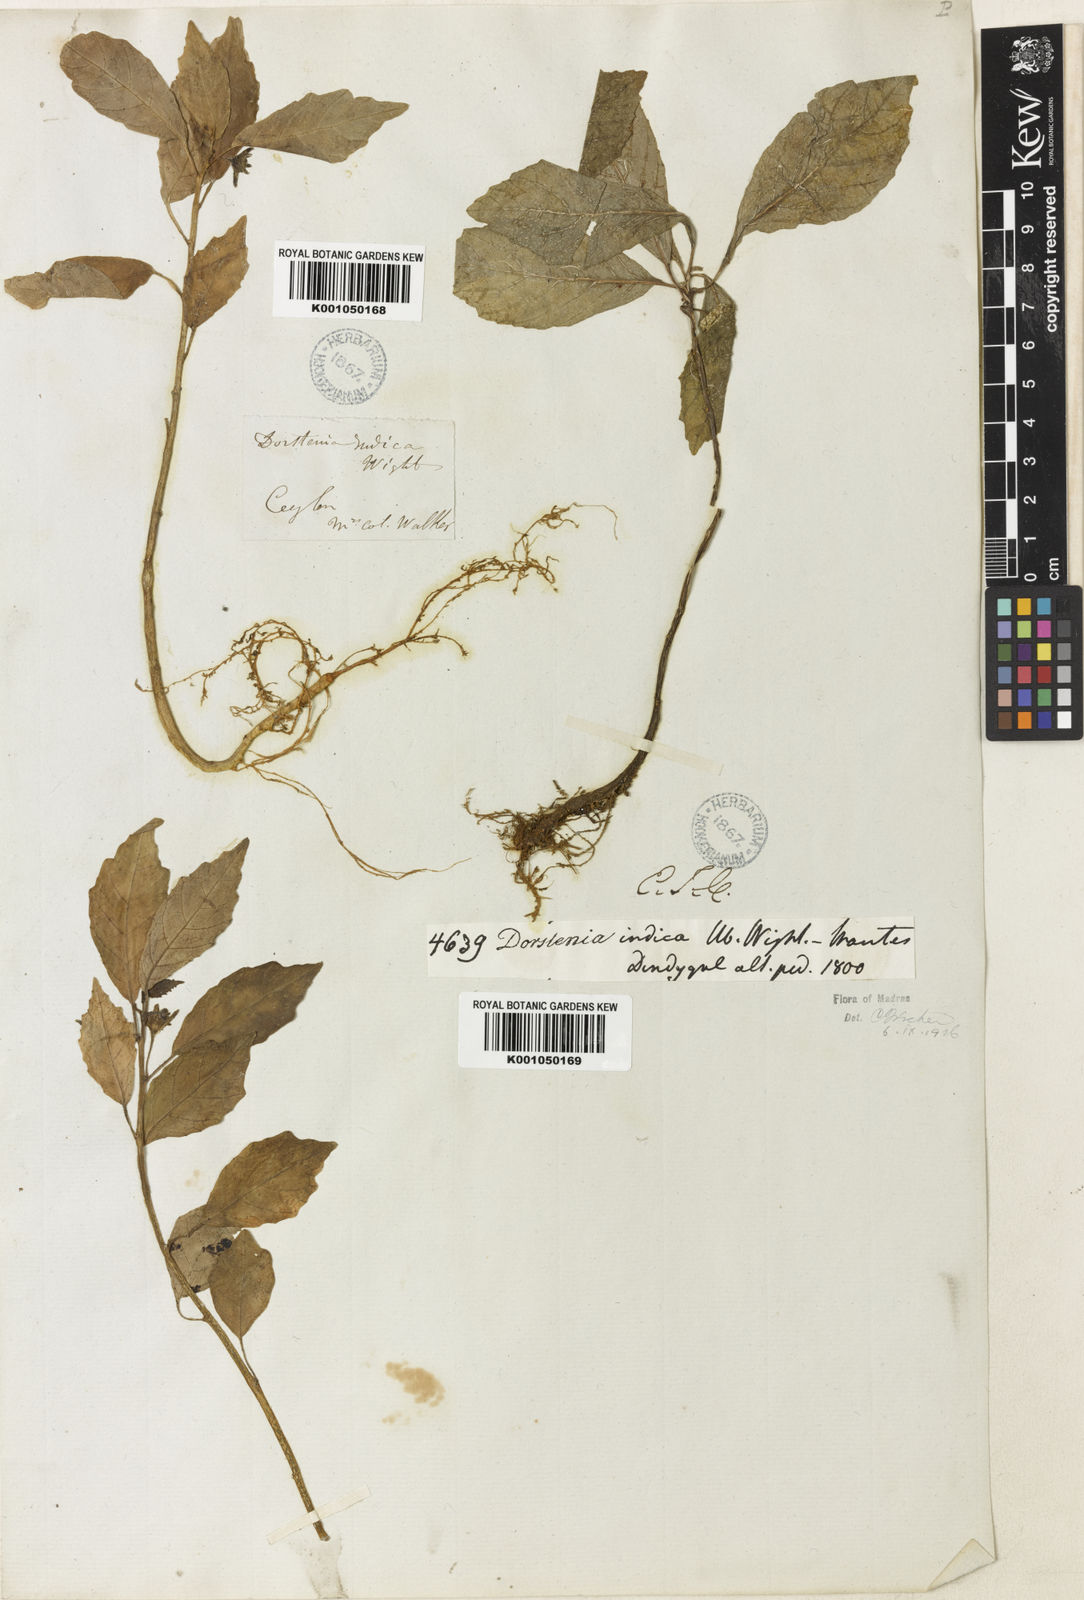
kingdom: Plantae
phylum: Tracheophyta
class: Magnoliopsida
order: Rosales
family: Moraceae
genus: Dorstenia
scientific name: Dorstenia indica
